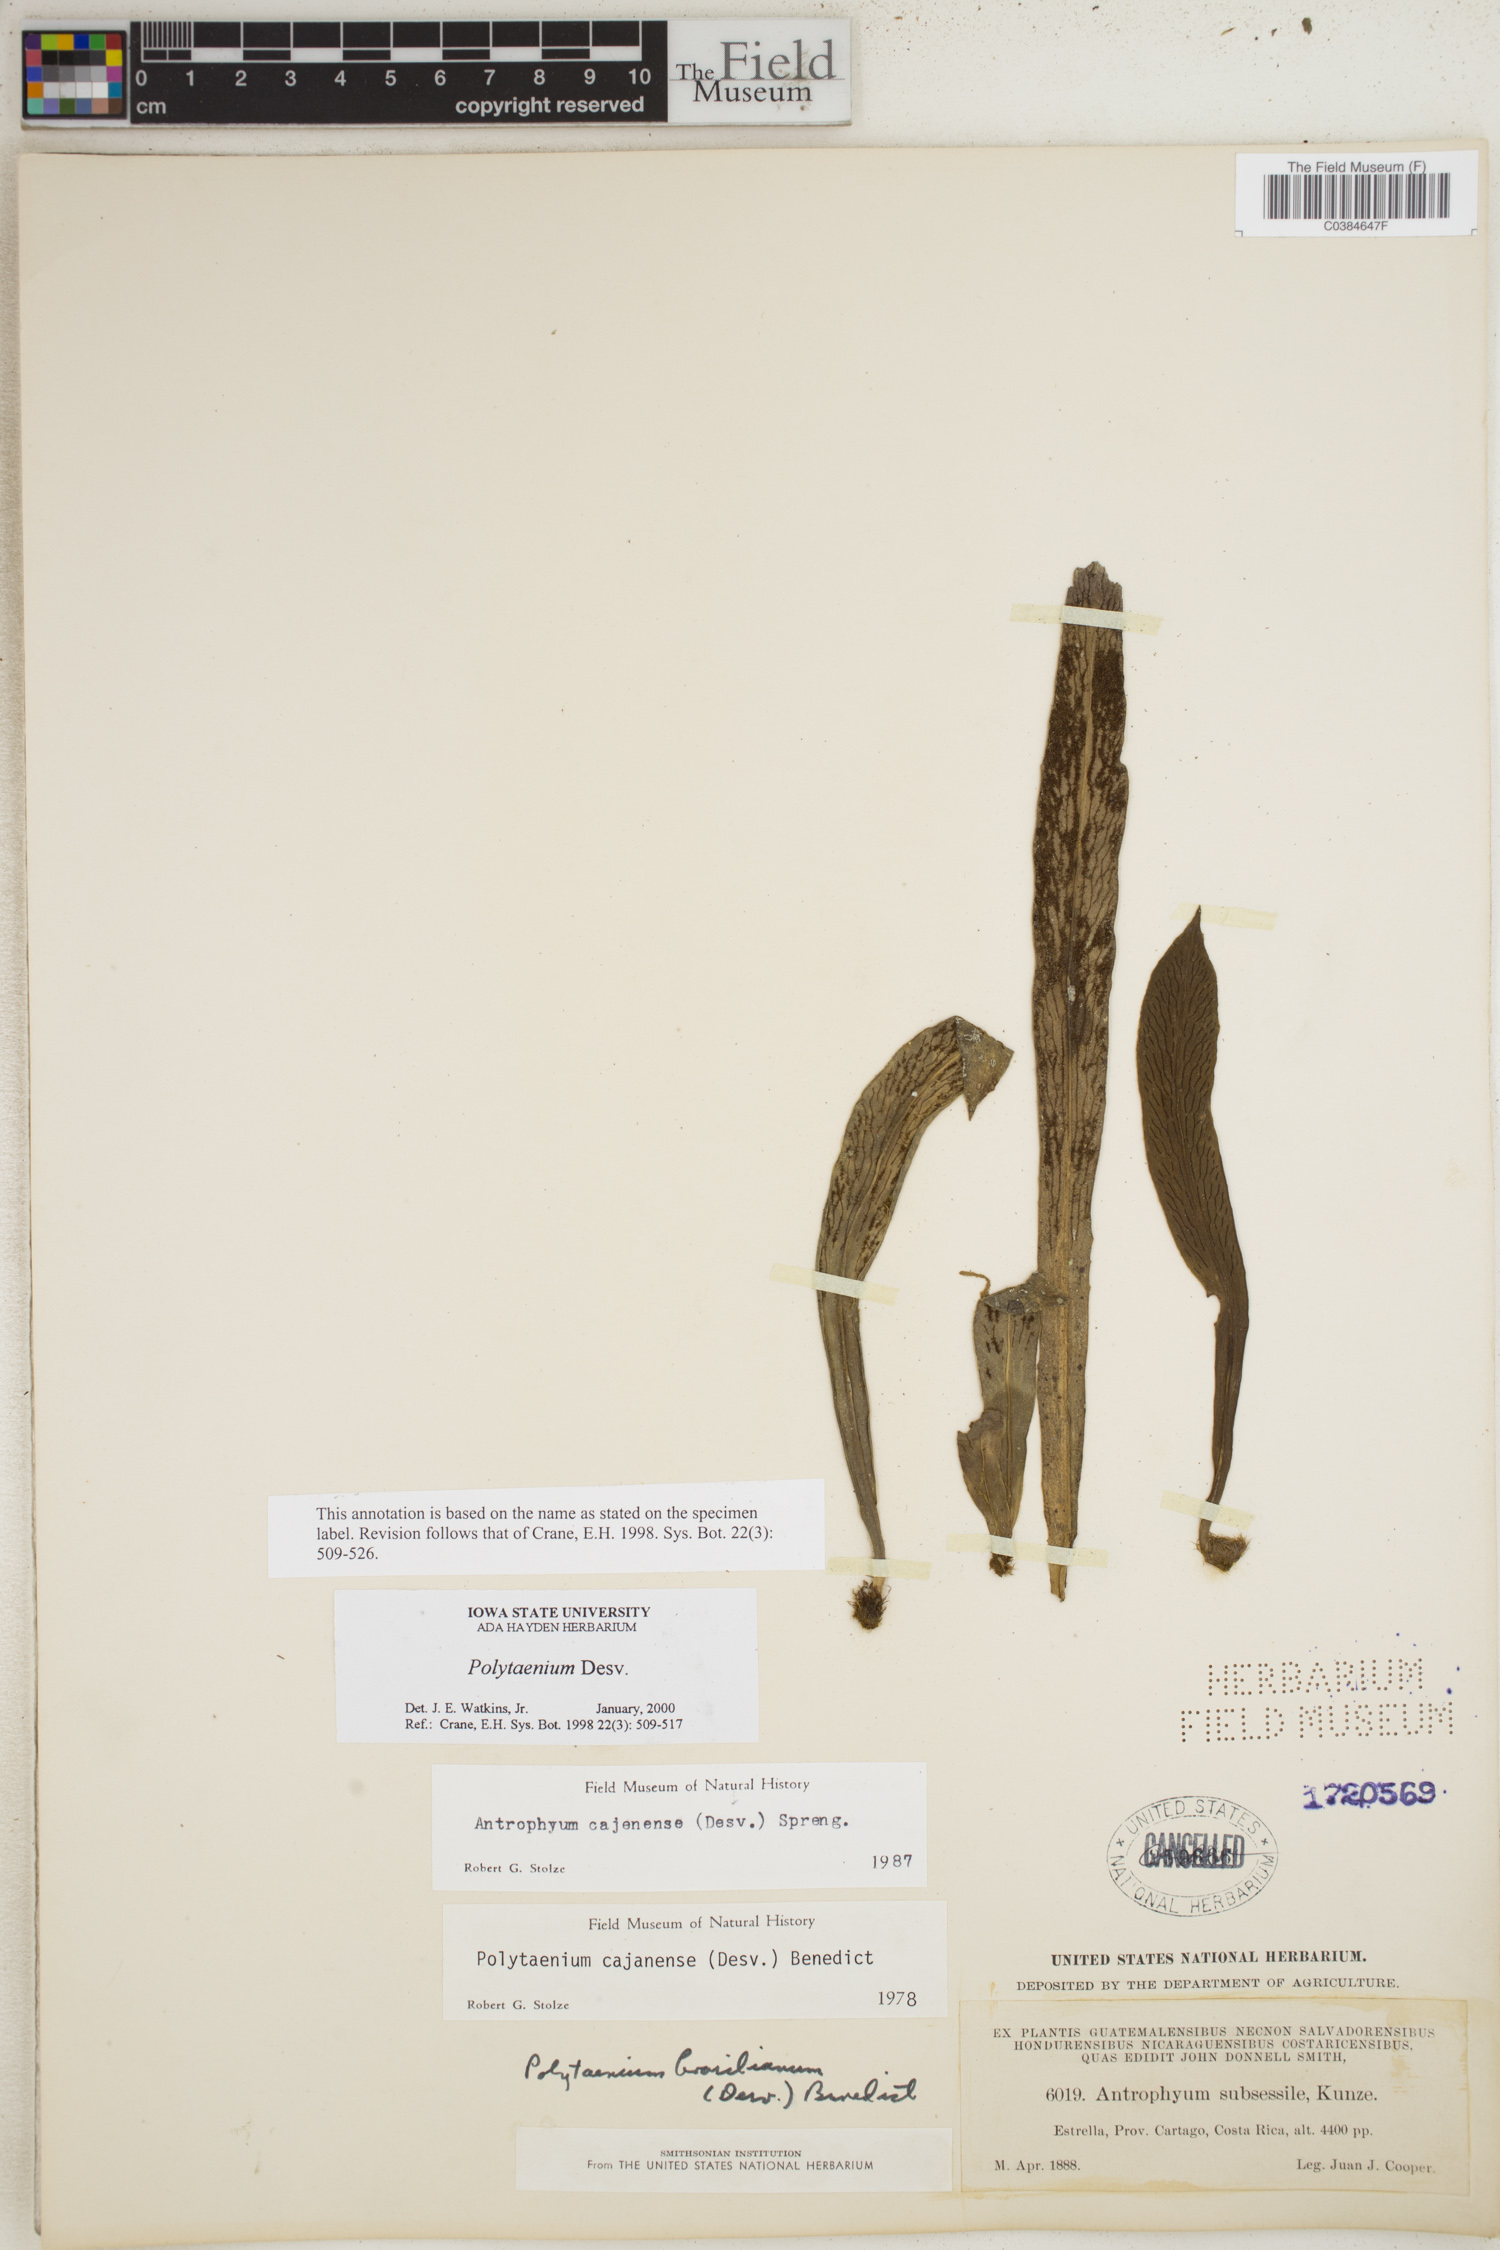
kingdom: Plantae
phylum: Tracheophyta
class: Polypodiopsida
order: Polypodiales
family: Pteridaceae
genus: Polytaenium
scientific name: Polytaenium
